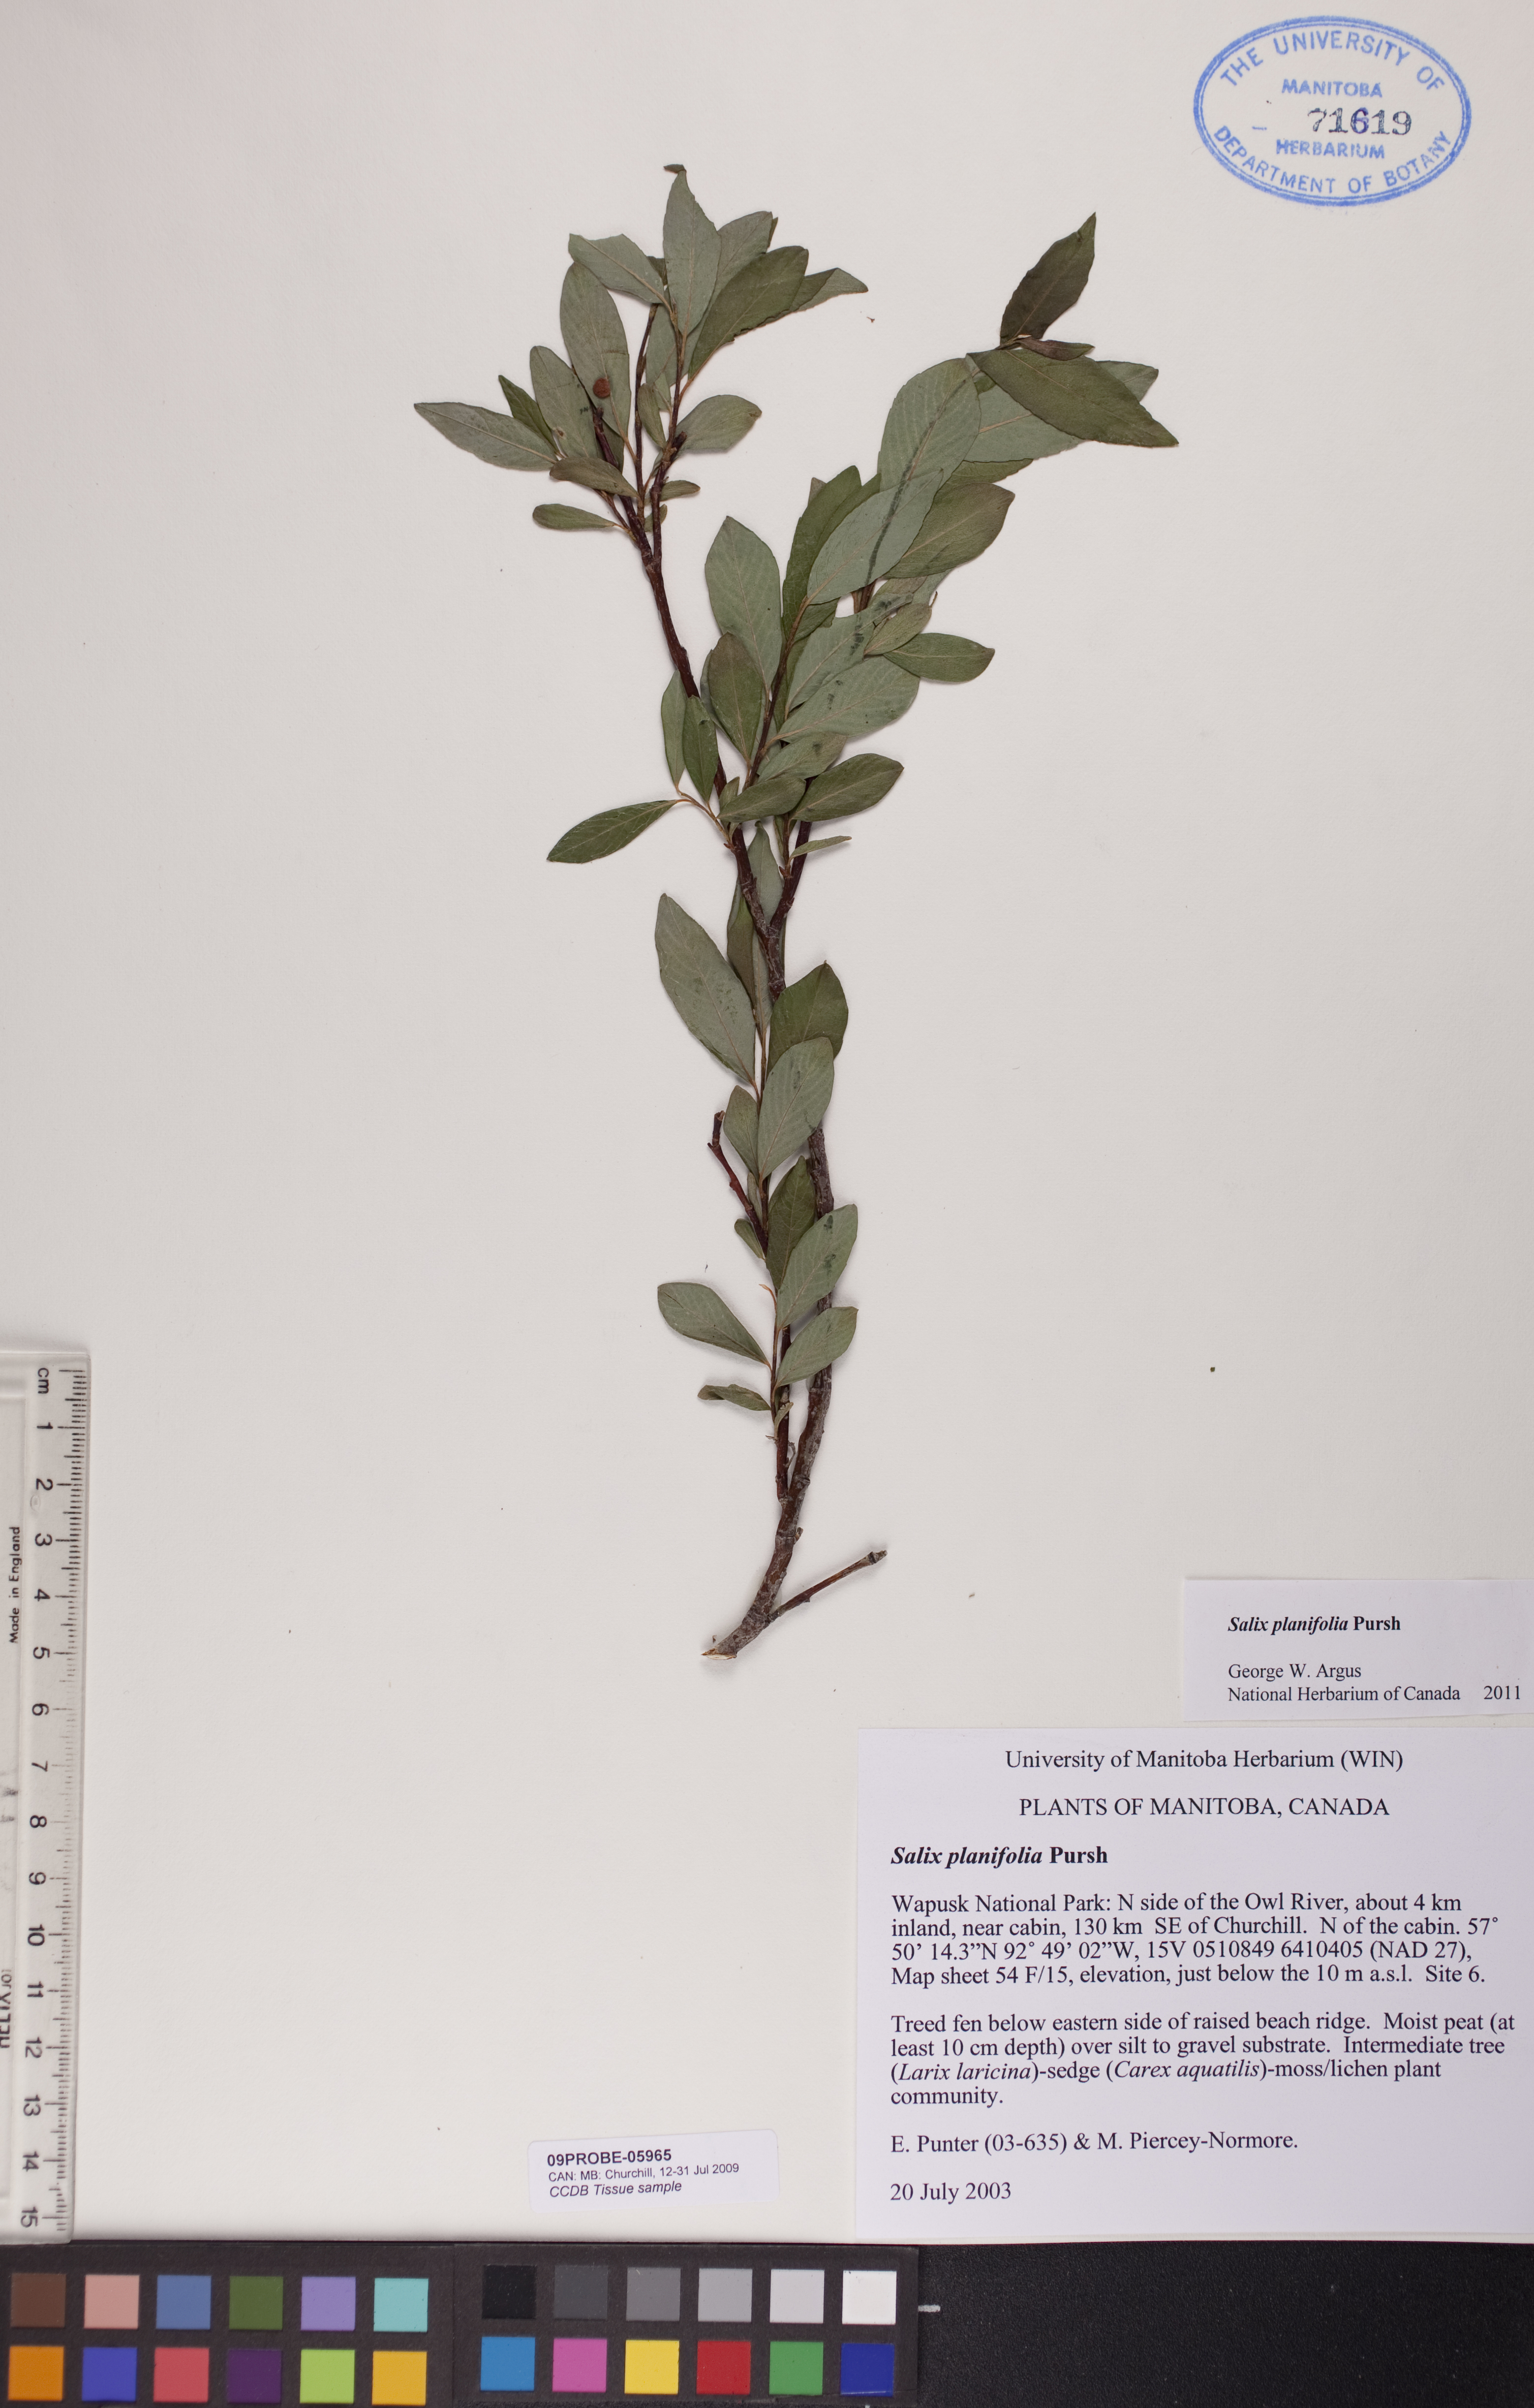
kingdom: Plantae
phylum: Tracheophyta
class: Magnoliopsida
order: Malpighiales
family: Salicaceae
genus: Salix
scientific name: Salix planifolia
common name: Mountain willow
